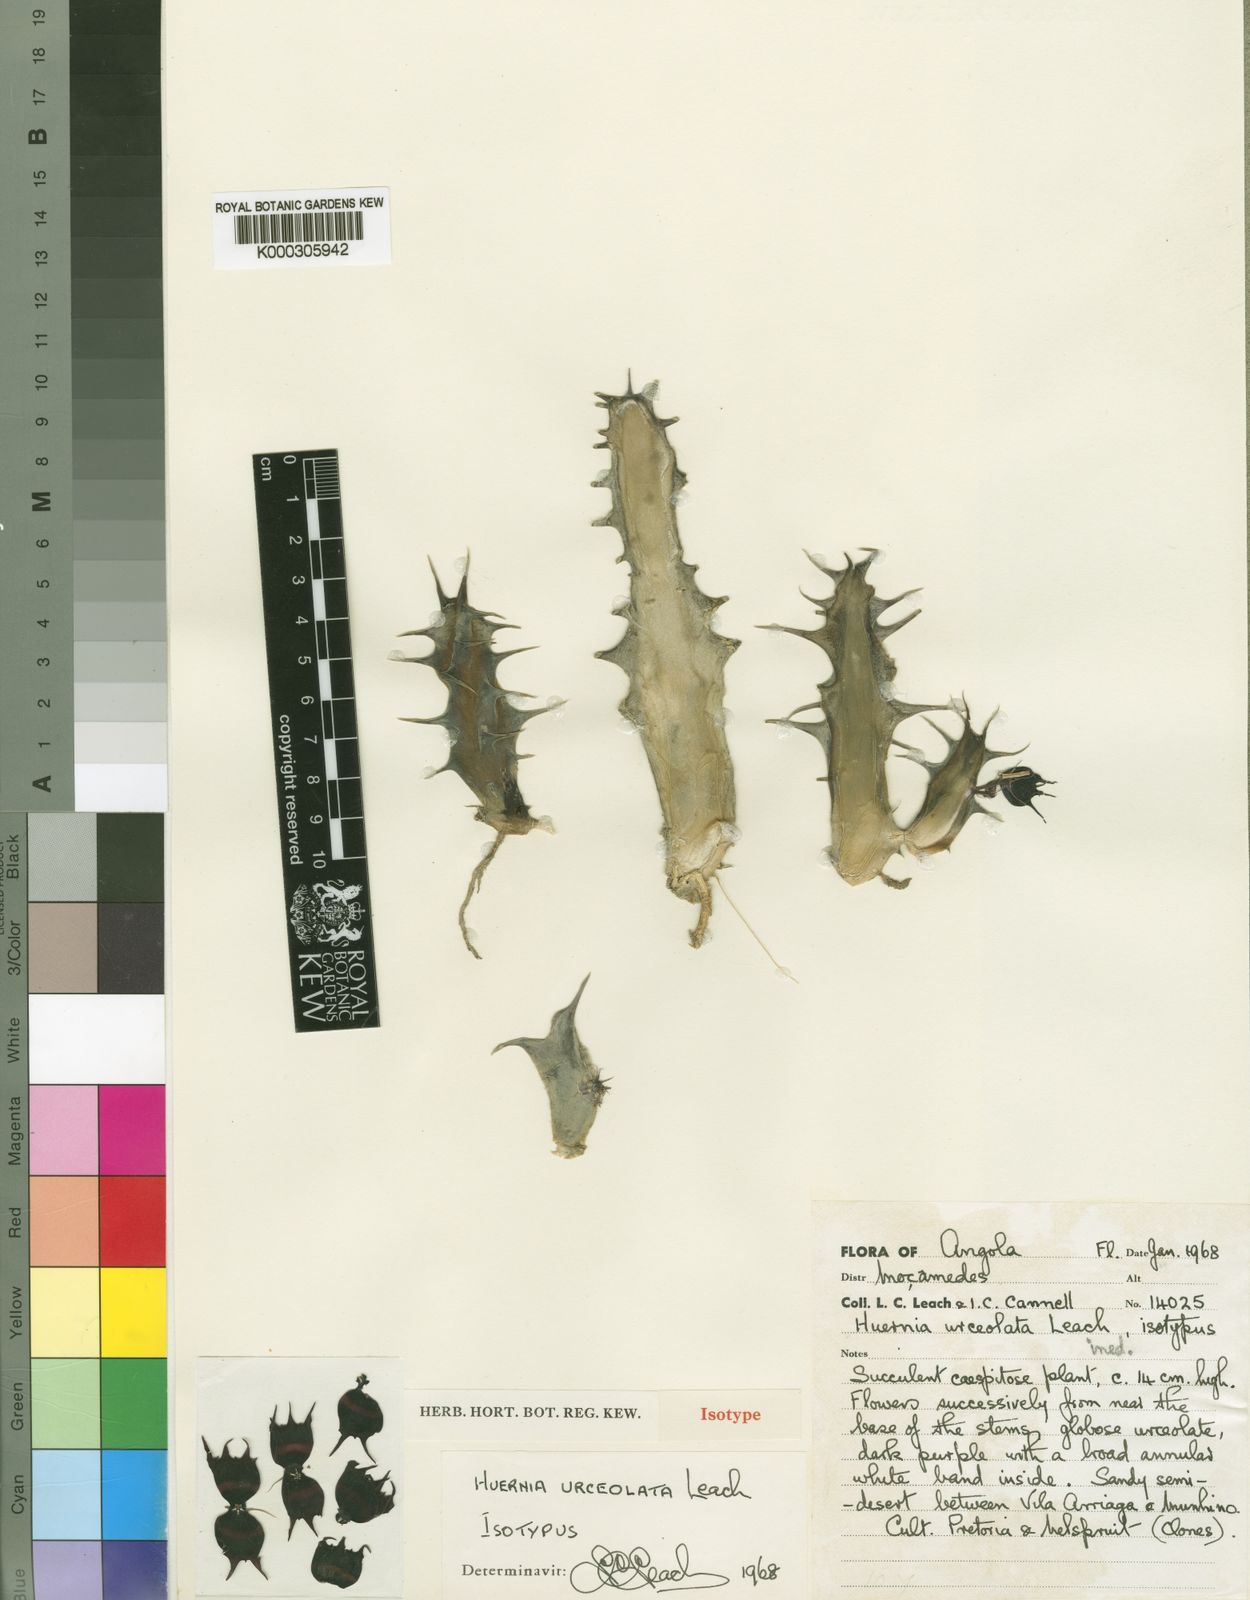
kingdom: Plantae
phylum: Tracheophyta
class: Magnoliopsida
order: Gentianales
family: Apocynaceae
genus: Ceropegia
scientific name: Ceropegia urceolata
